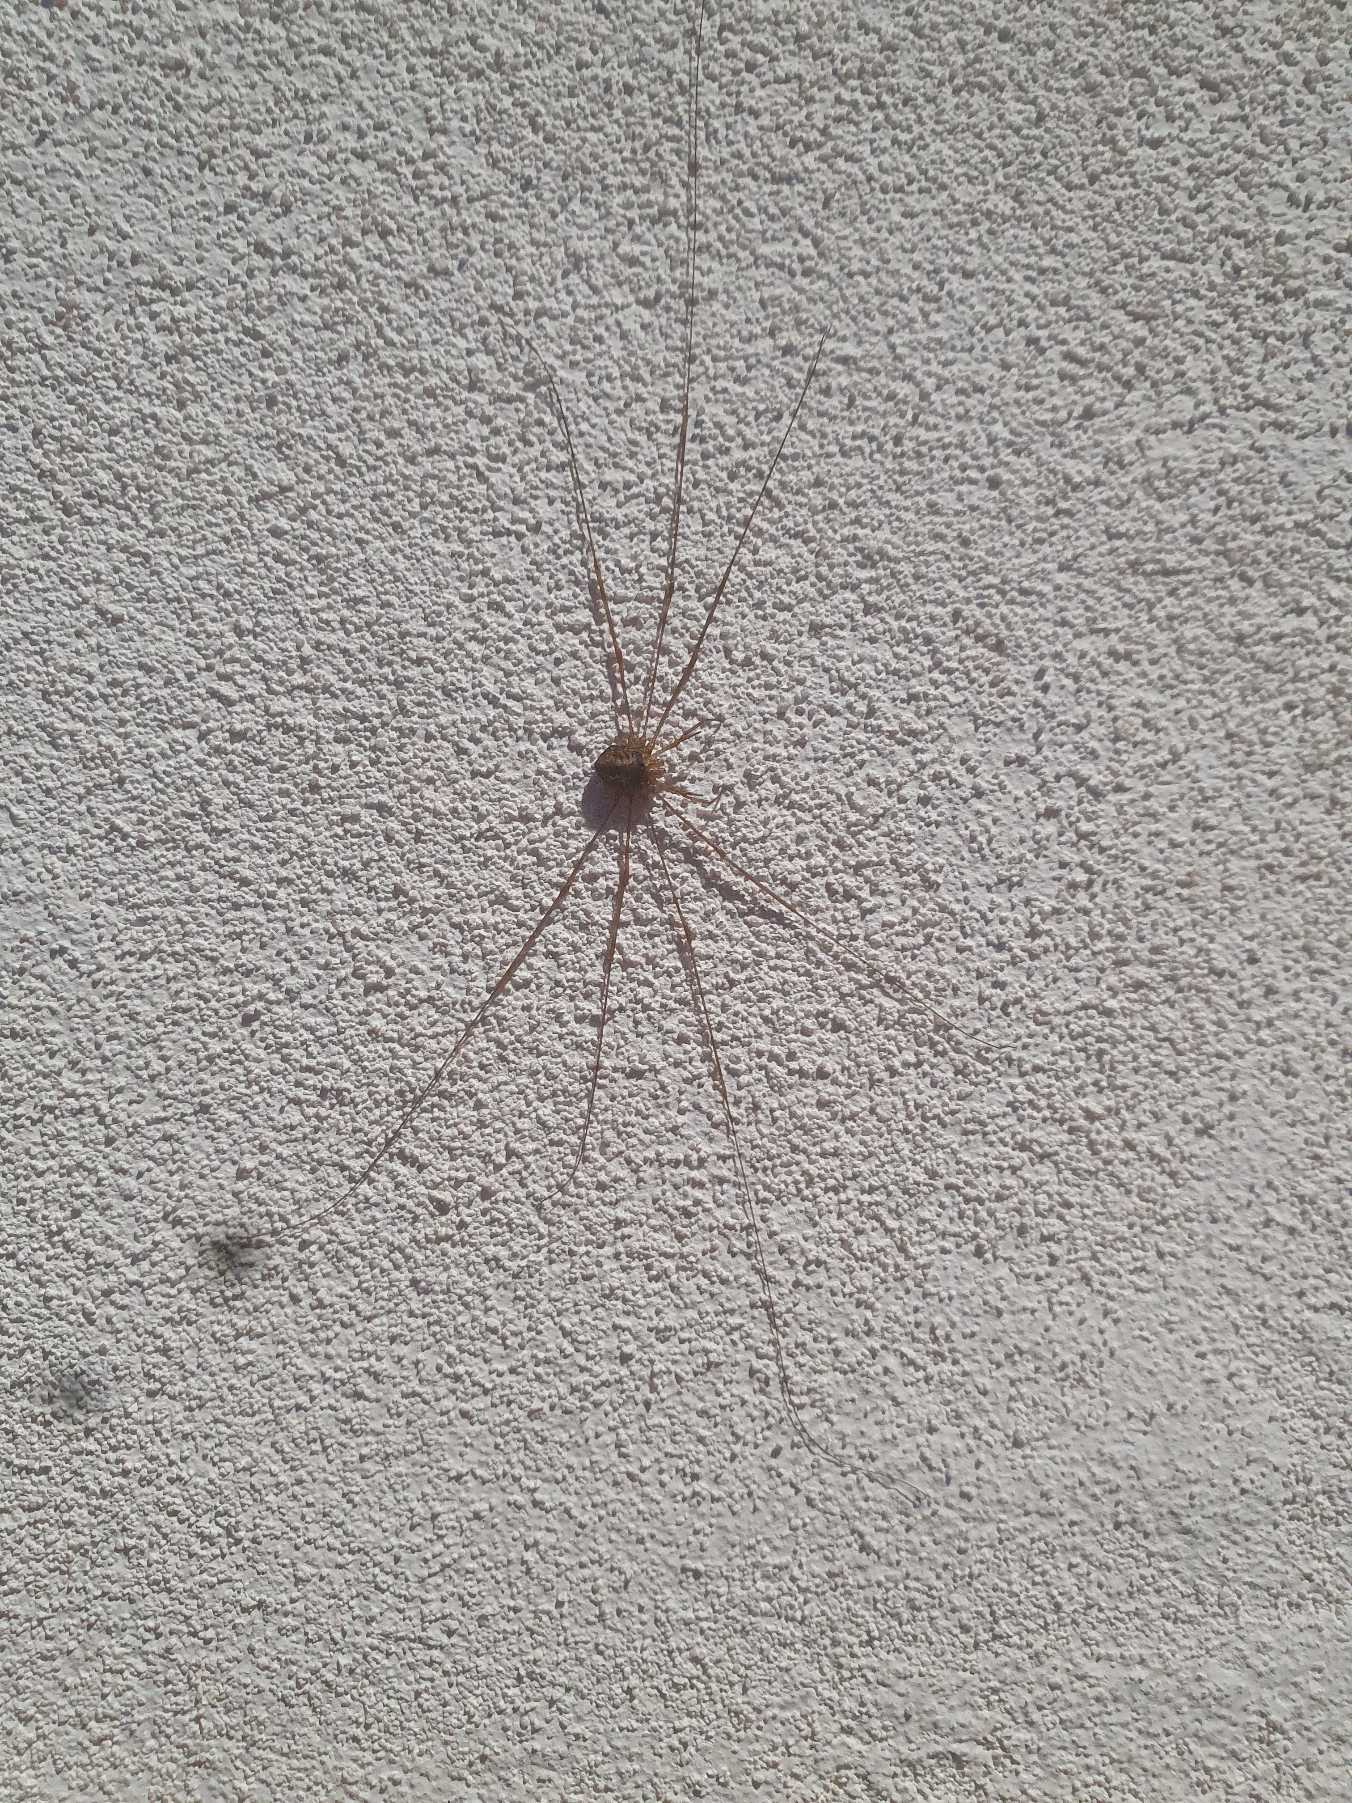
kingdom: Animalia
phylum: Arthropoda
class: Arachnida
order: Opiliones
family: Phalangiidae
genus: Dicranopalpus
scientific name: Dicranopalpus ramosus
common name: Gaffelmejer
